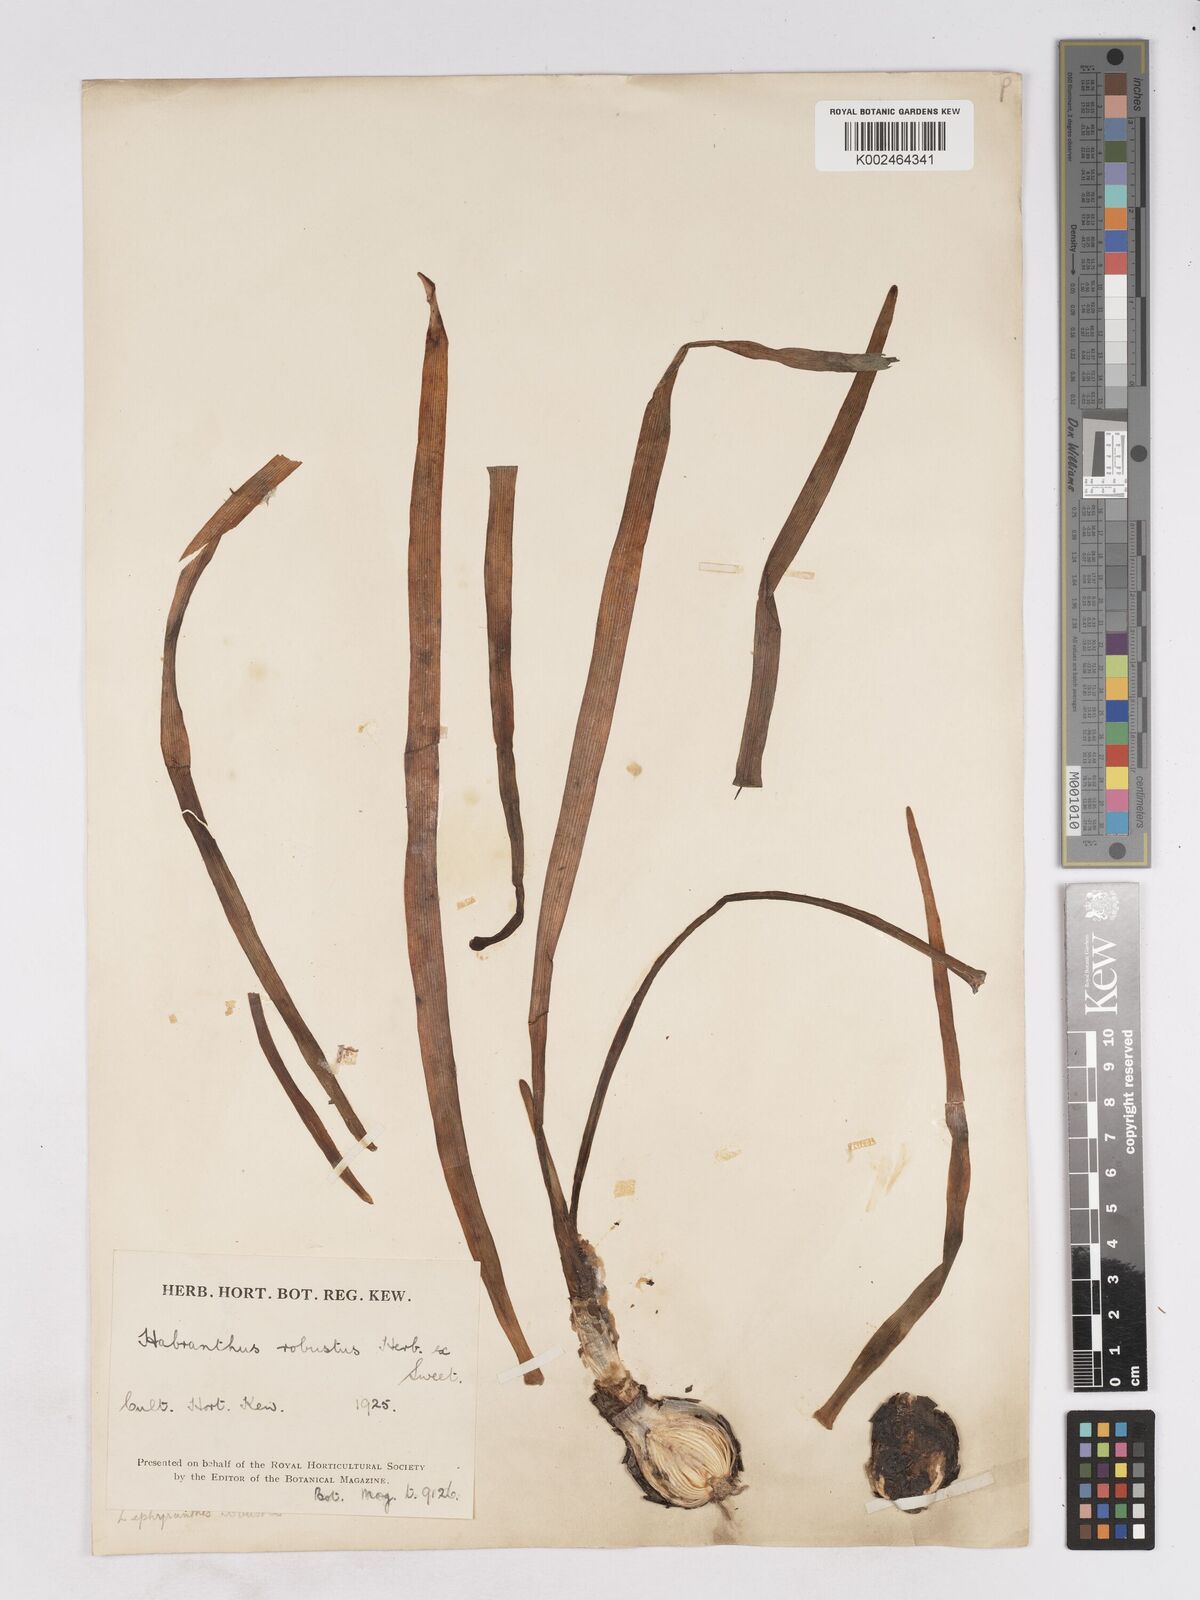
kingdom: Plantae
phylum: Tracheophyta
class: Liliopsida
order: Asparagales
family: Amaryllidaceae
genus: Zephyranthes
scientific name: Zephyranthes robusta
